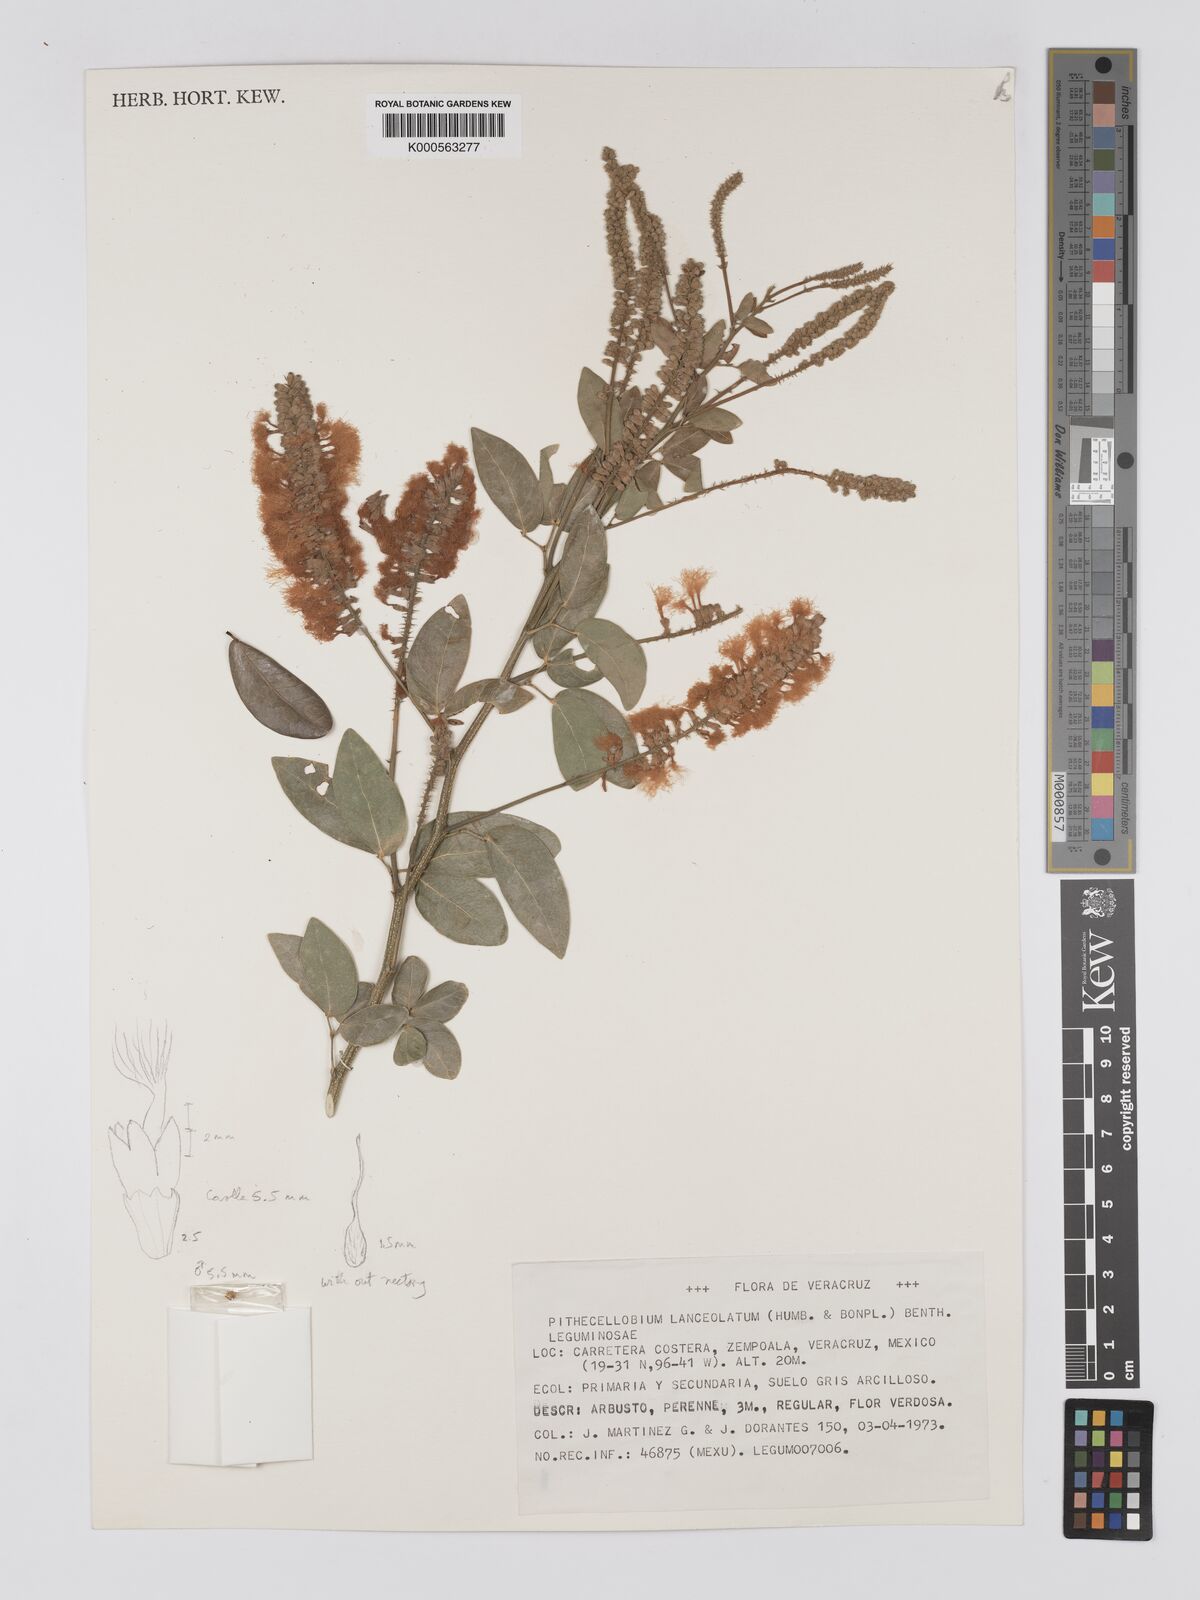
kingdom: Plantae
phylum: Tracheophyta
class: Magnoliopsida
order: Fabales
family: Fabaceae
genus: Pithecellobium
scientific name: Pithecellobium lanceolatum
